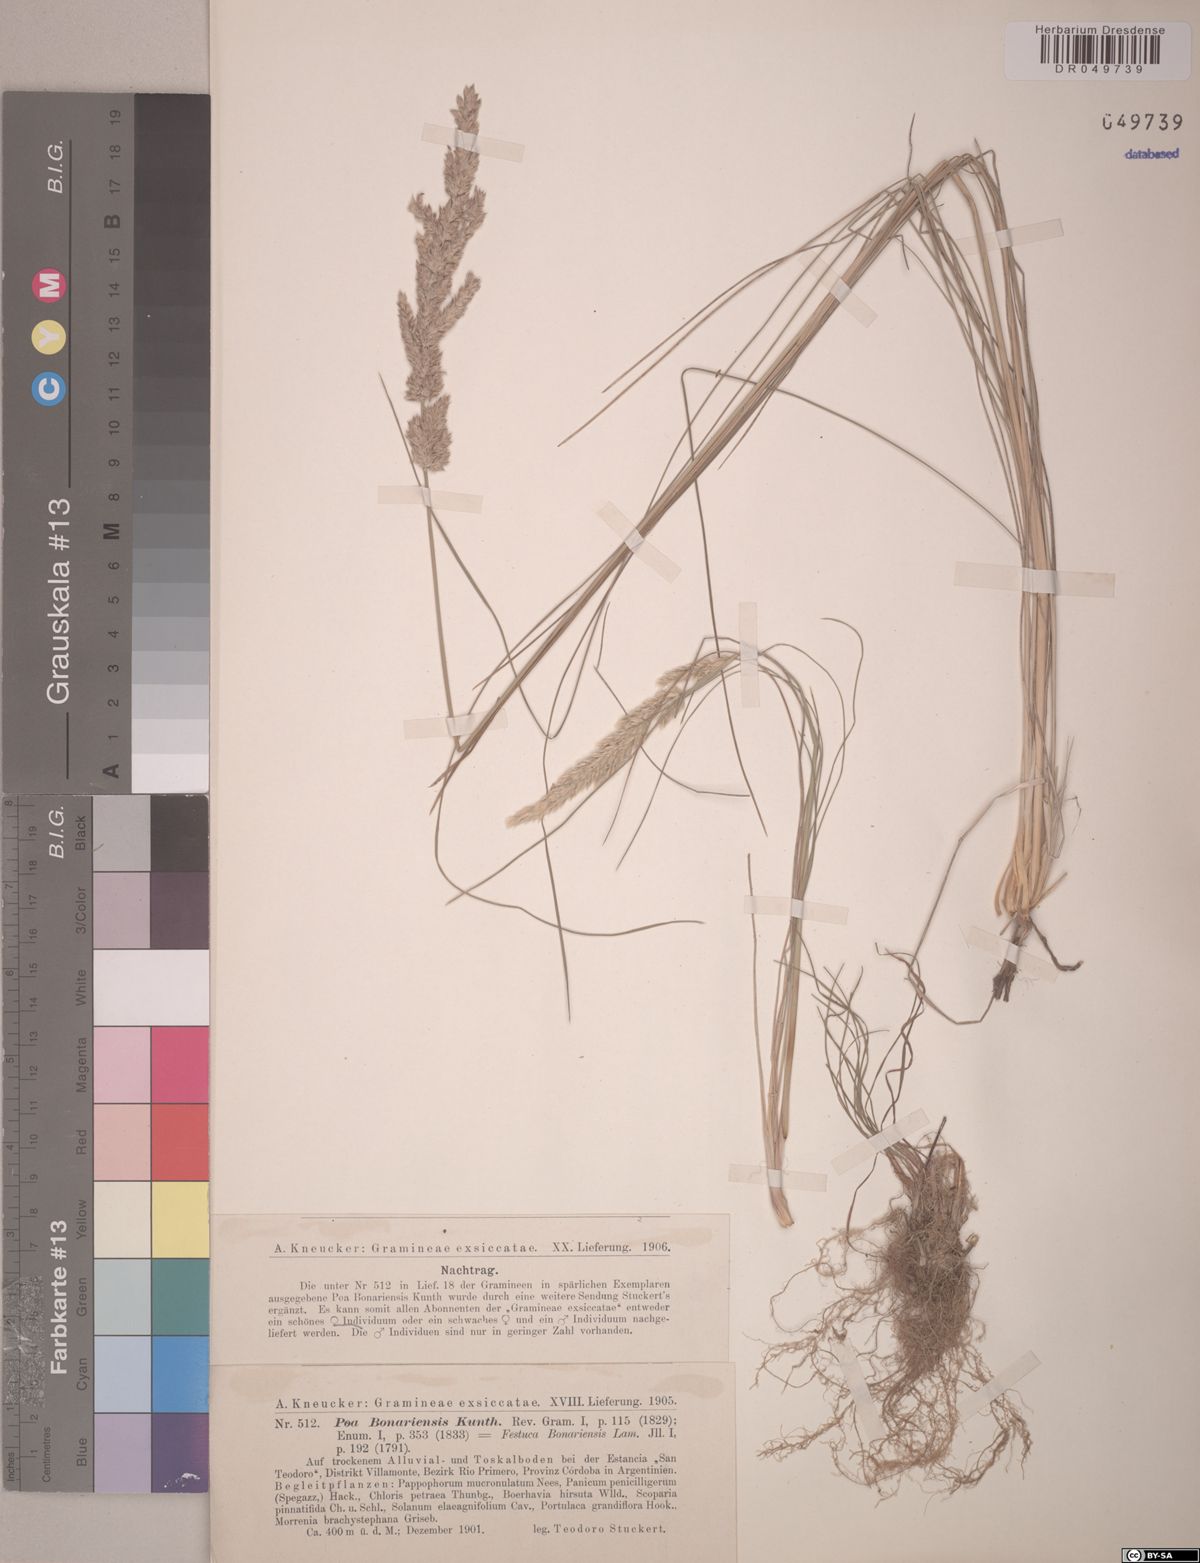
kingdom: Plantae
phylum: Tracheophyta
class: Liliopsida
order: Poales
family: Poaceae
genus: Poa
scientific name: Poa bonariensis
